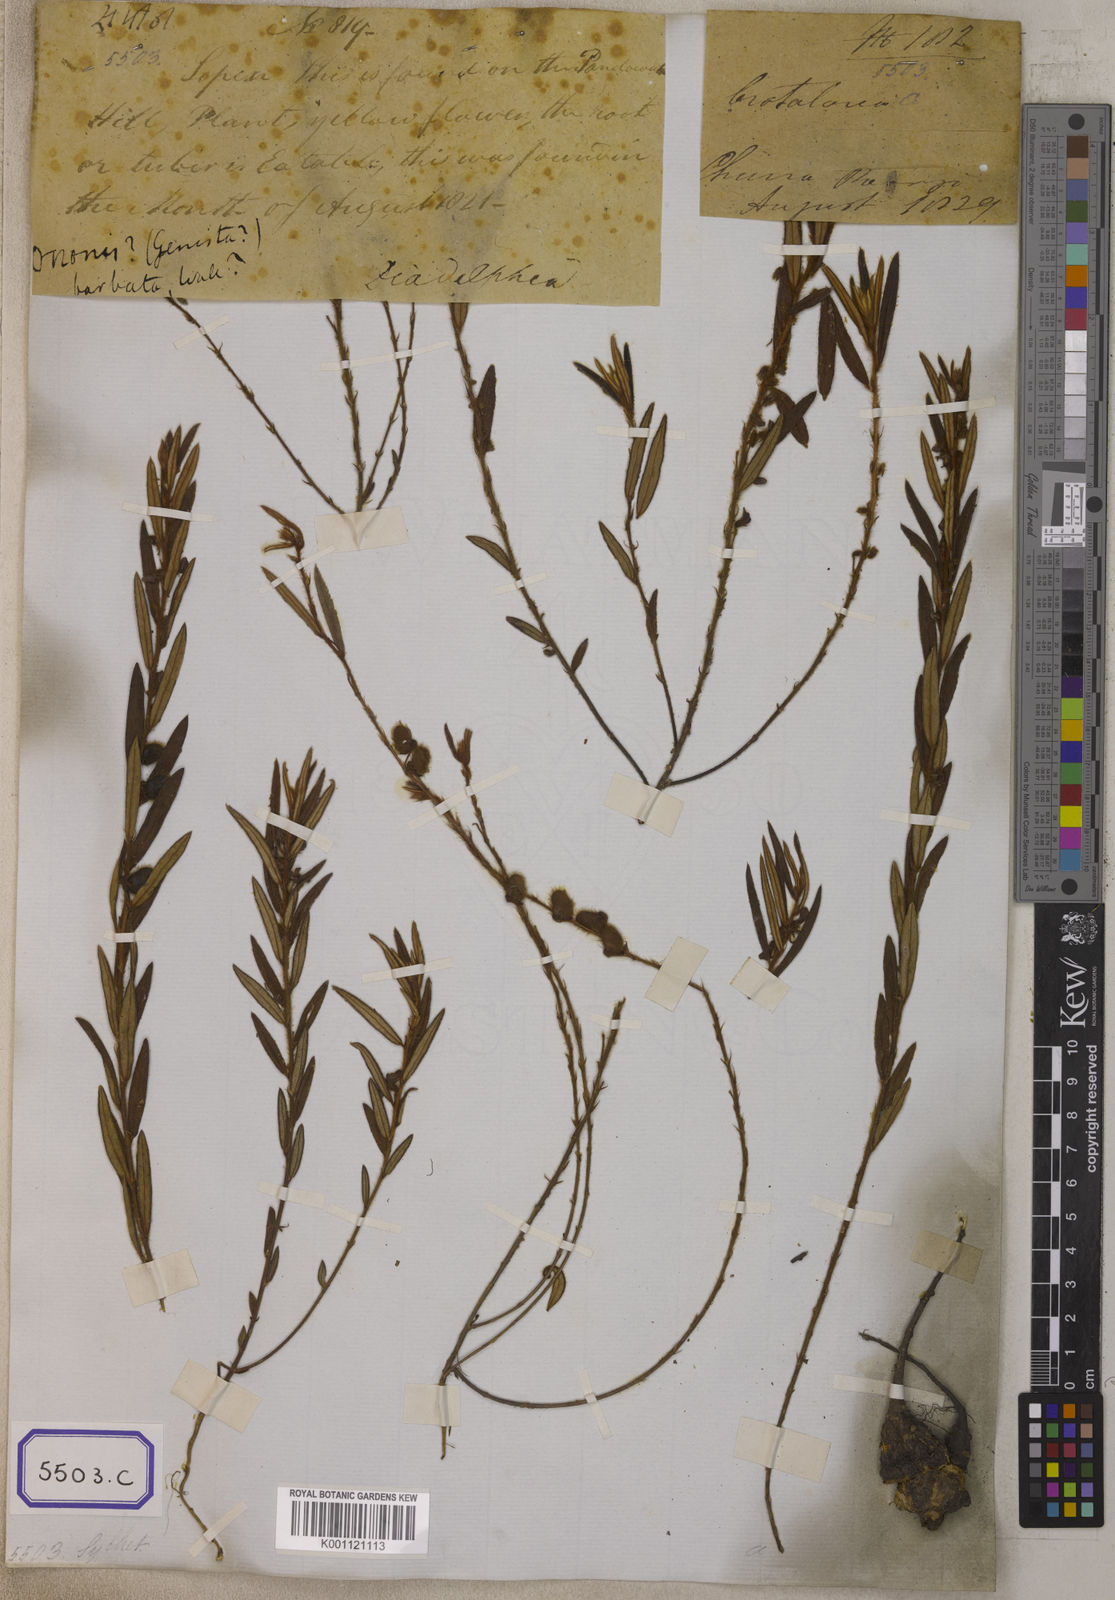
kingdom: Plantae
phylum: Tracheophyta
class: Magnoliopsida
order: Fabales
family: Fabaceae
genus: Eriosema
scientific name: Eriosema chinense
